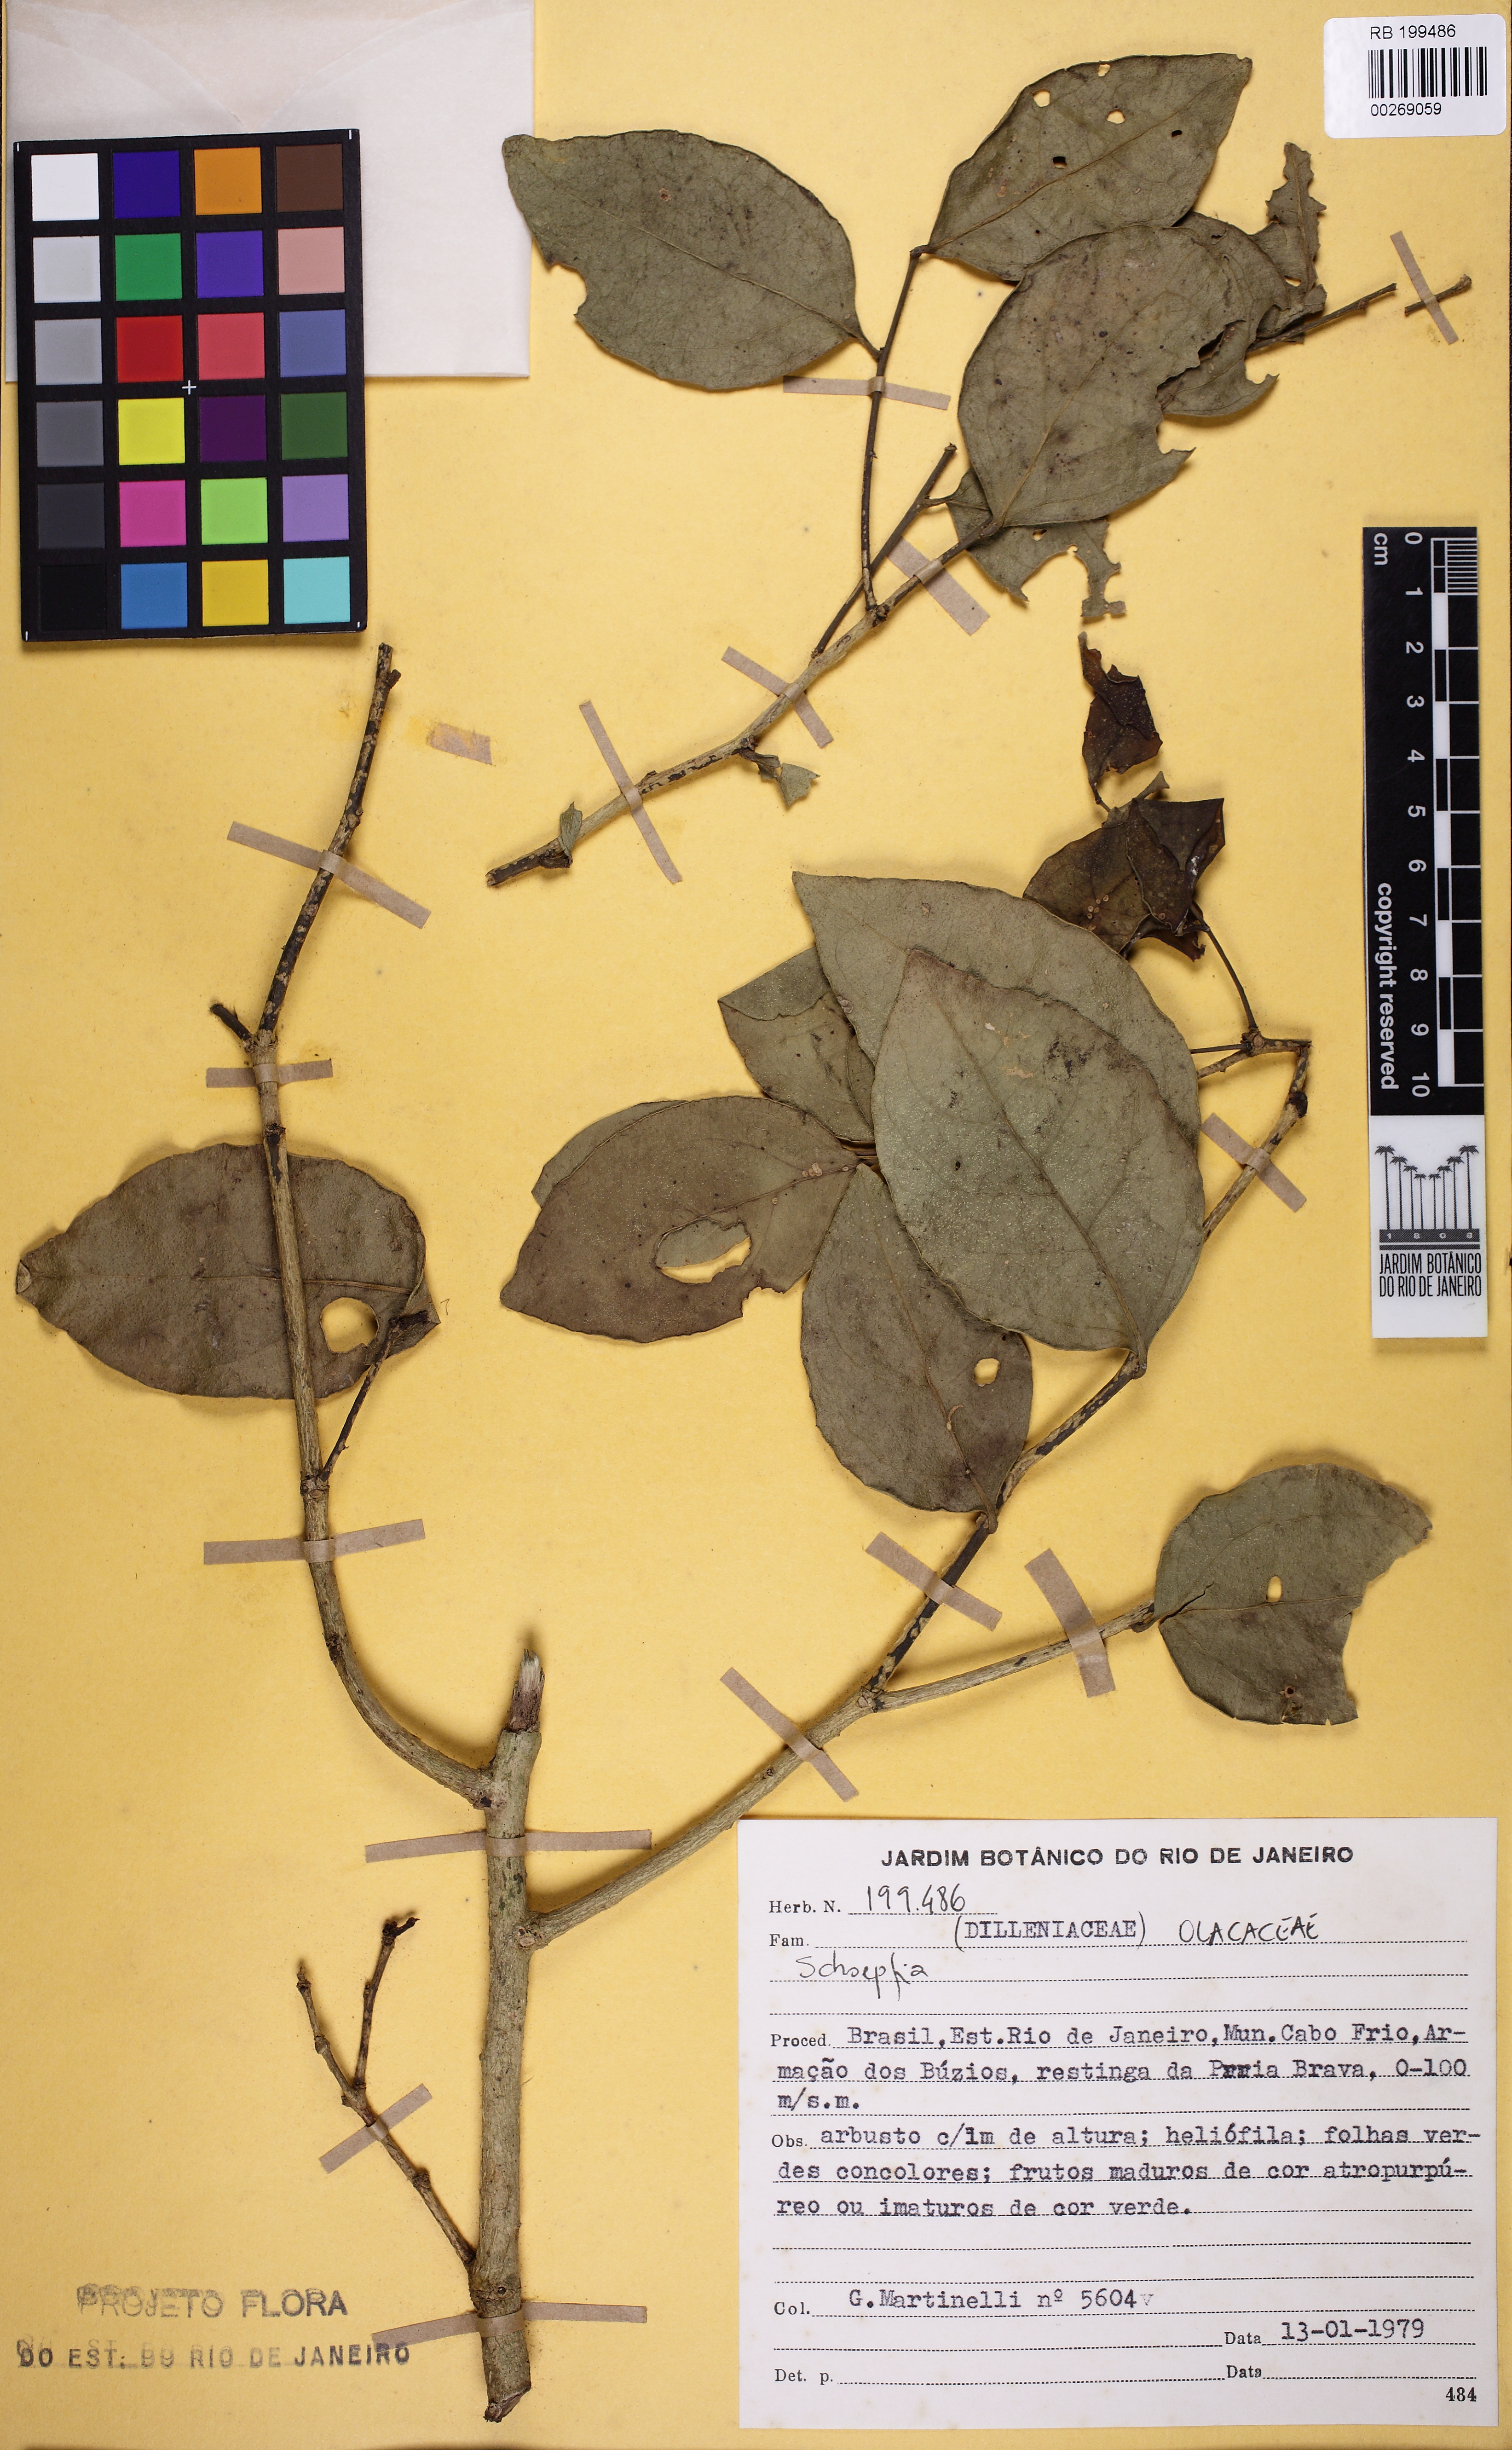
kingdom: Plantae
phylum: Tracheophyta
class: Magnoliopsida
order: Santalales
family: Schoepfiaceae
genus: Schoepfia
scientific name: Schoepfia
